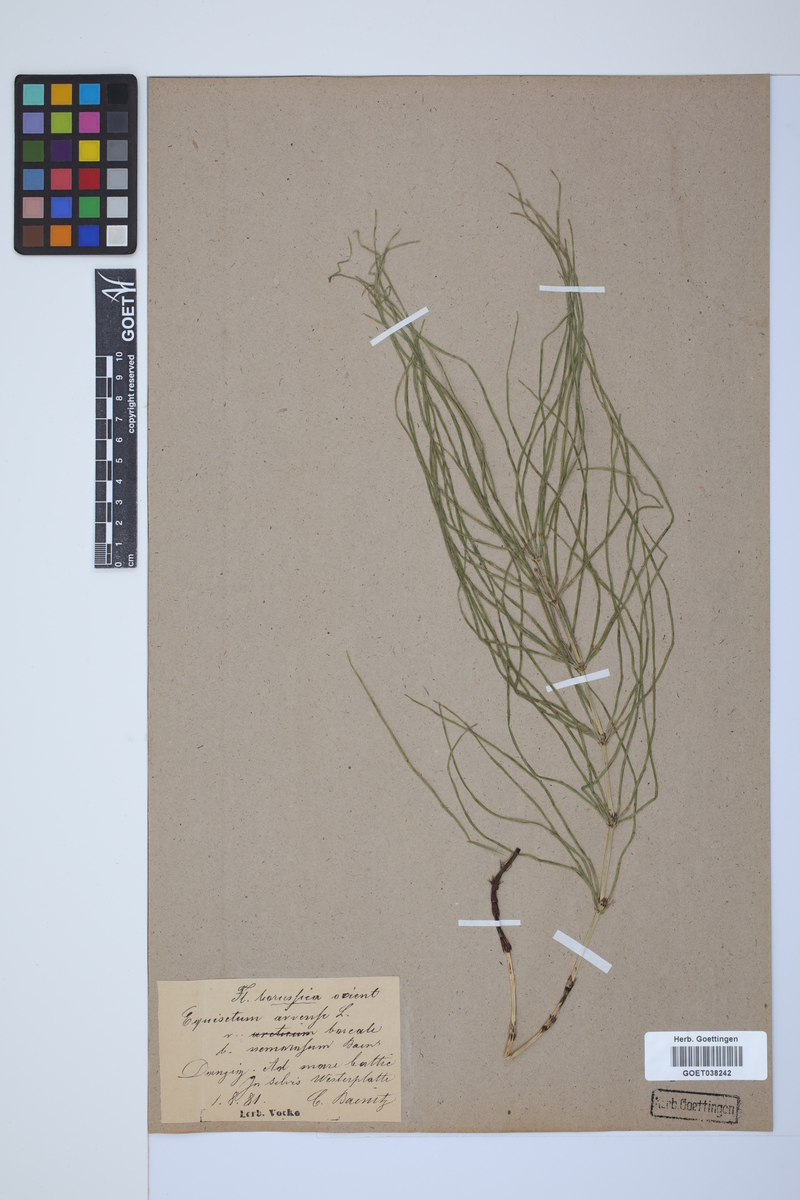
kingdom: Plantae
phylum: Tracheophyta
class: Polypodiopsida
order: Equisetales
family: Equisetaceae
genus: Equisetum
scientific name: Equisetum arvense
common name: Field horsetail
